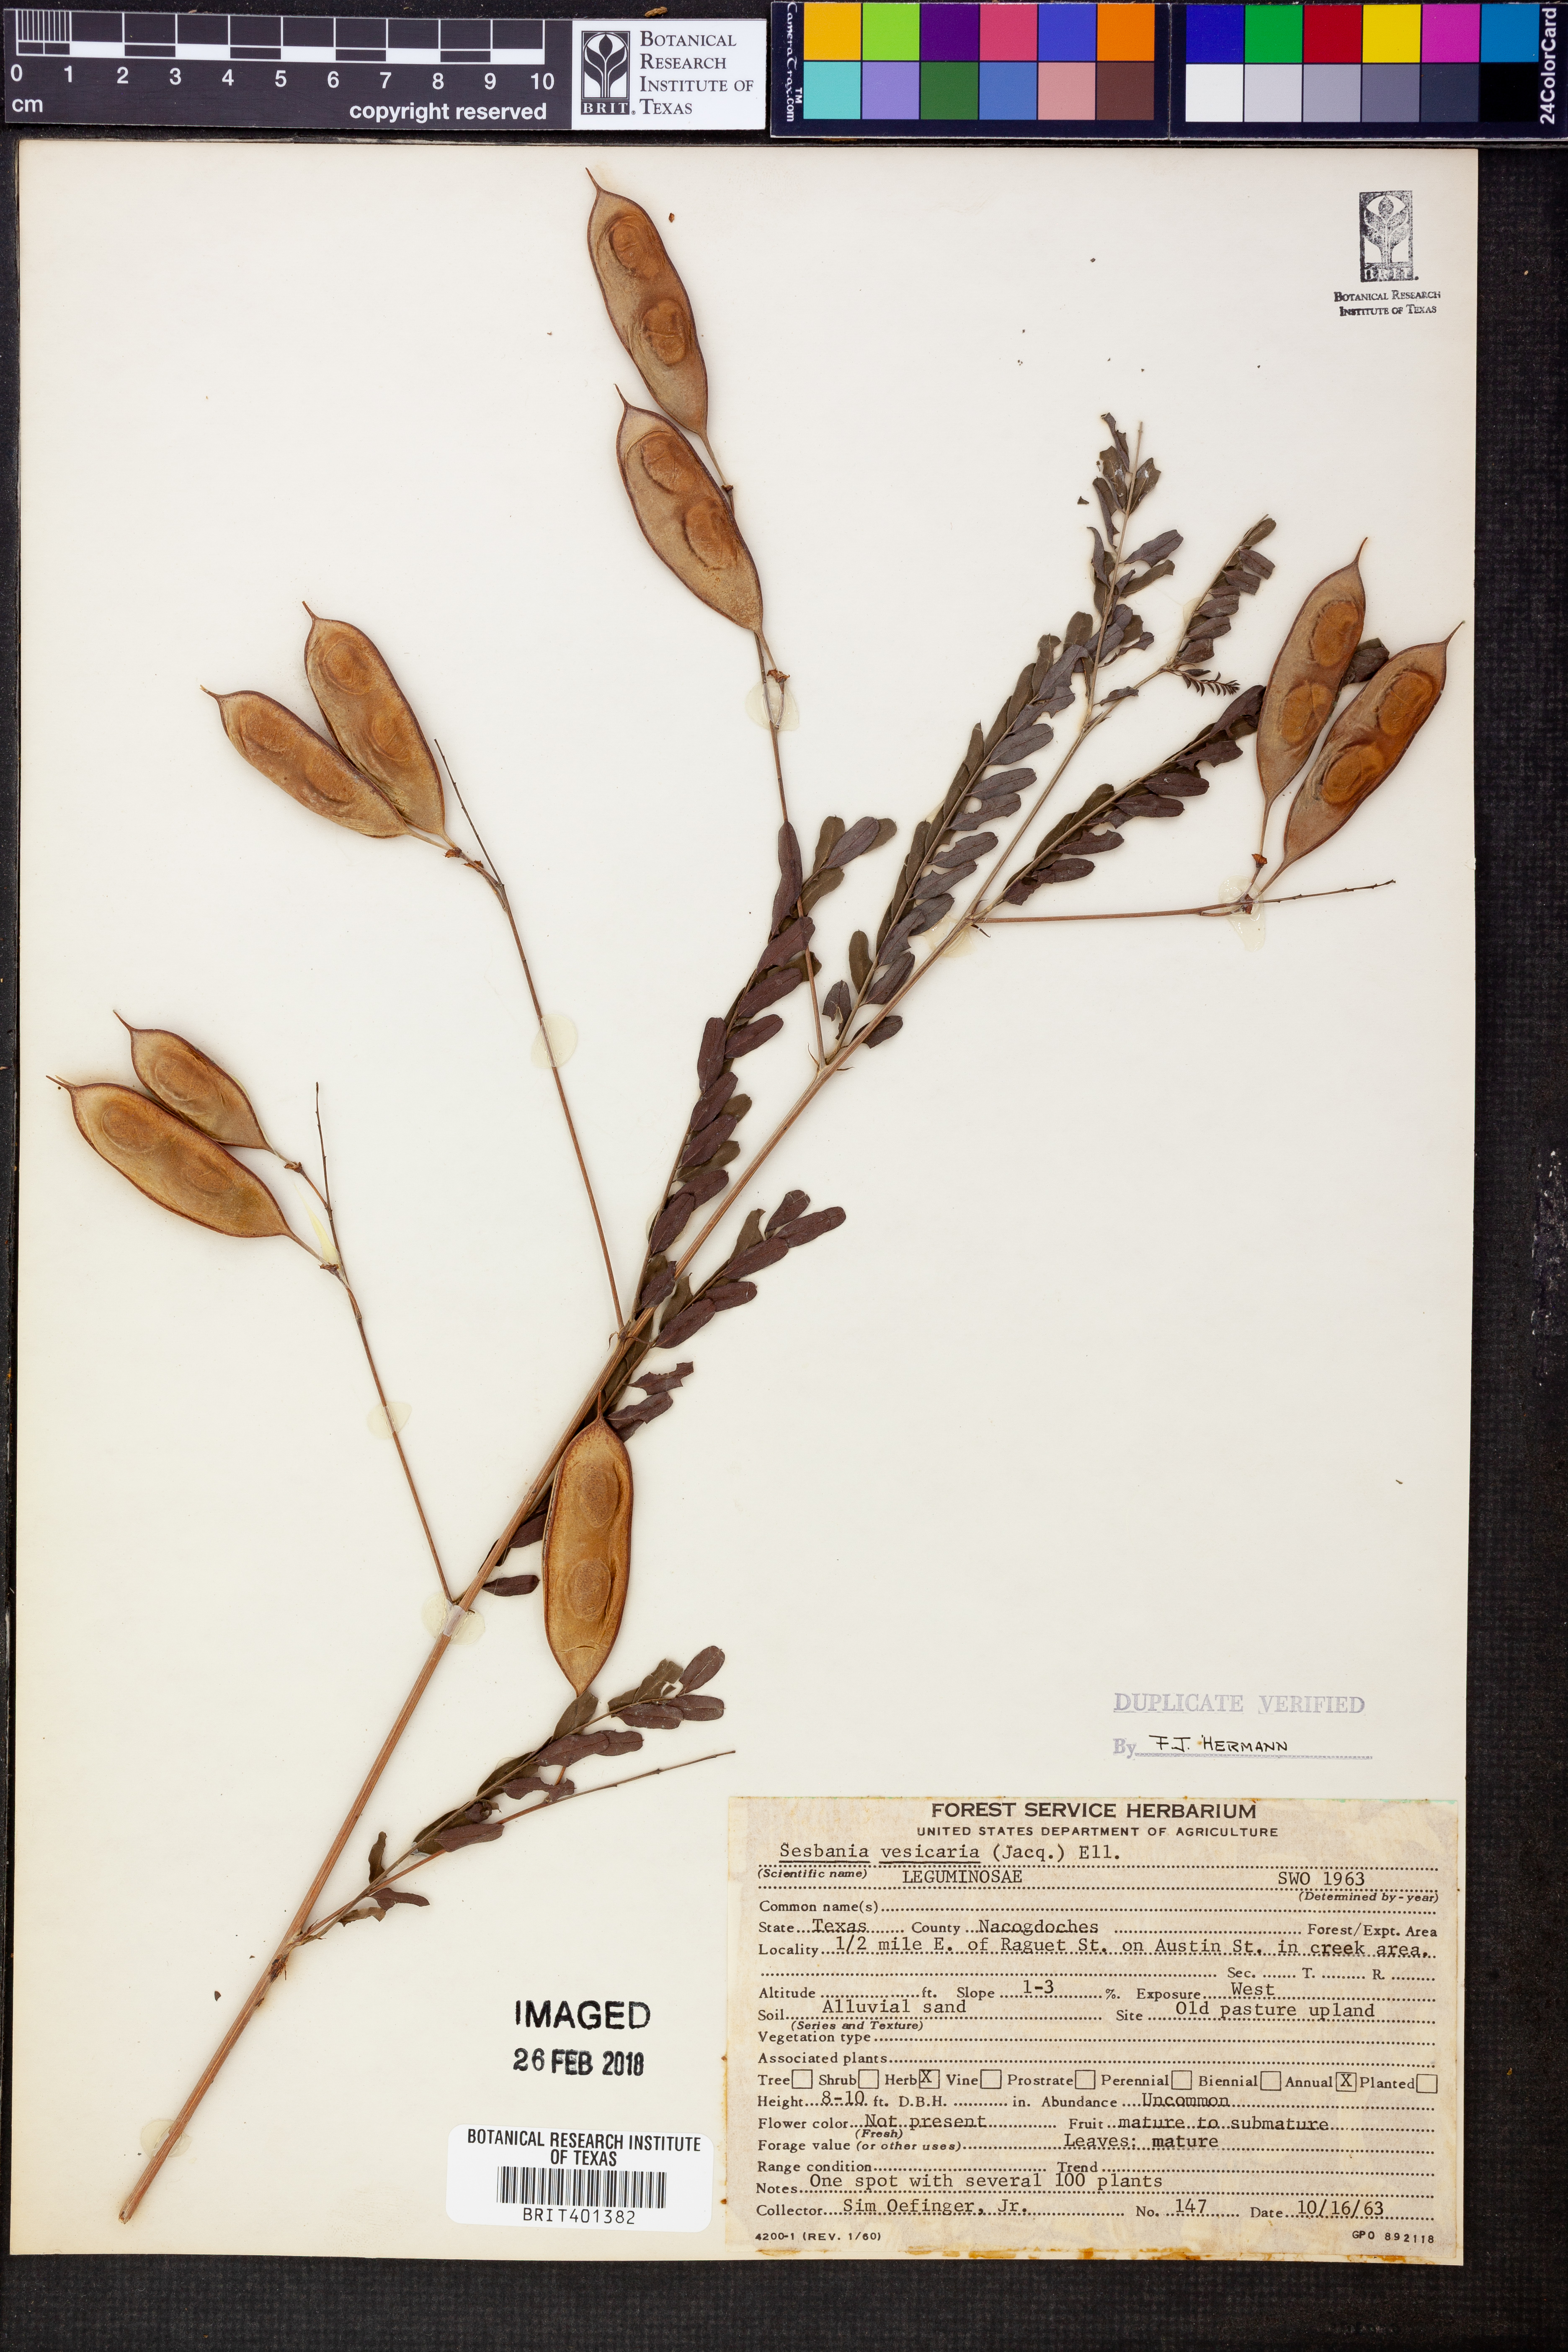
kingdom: Plantae
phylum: Tracheophyta
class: Magnoliopsida
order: Fabales
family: Fabaceae
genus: Sesbania
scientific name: Sesbania vesicaria
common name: Bagpod
